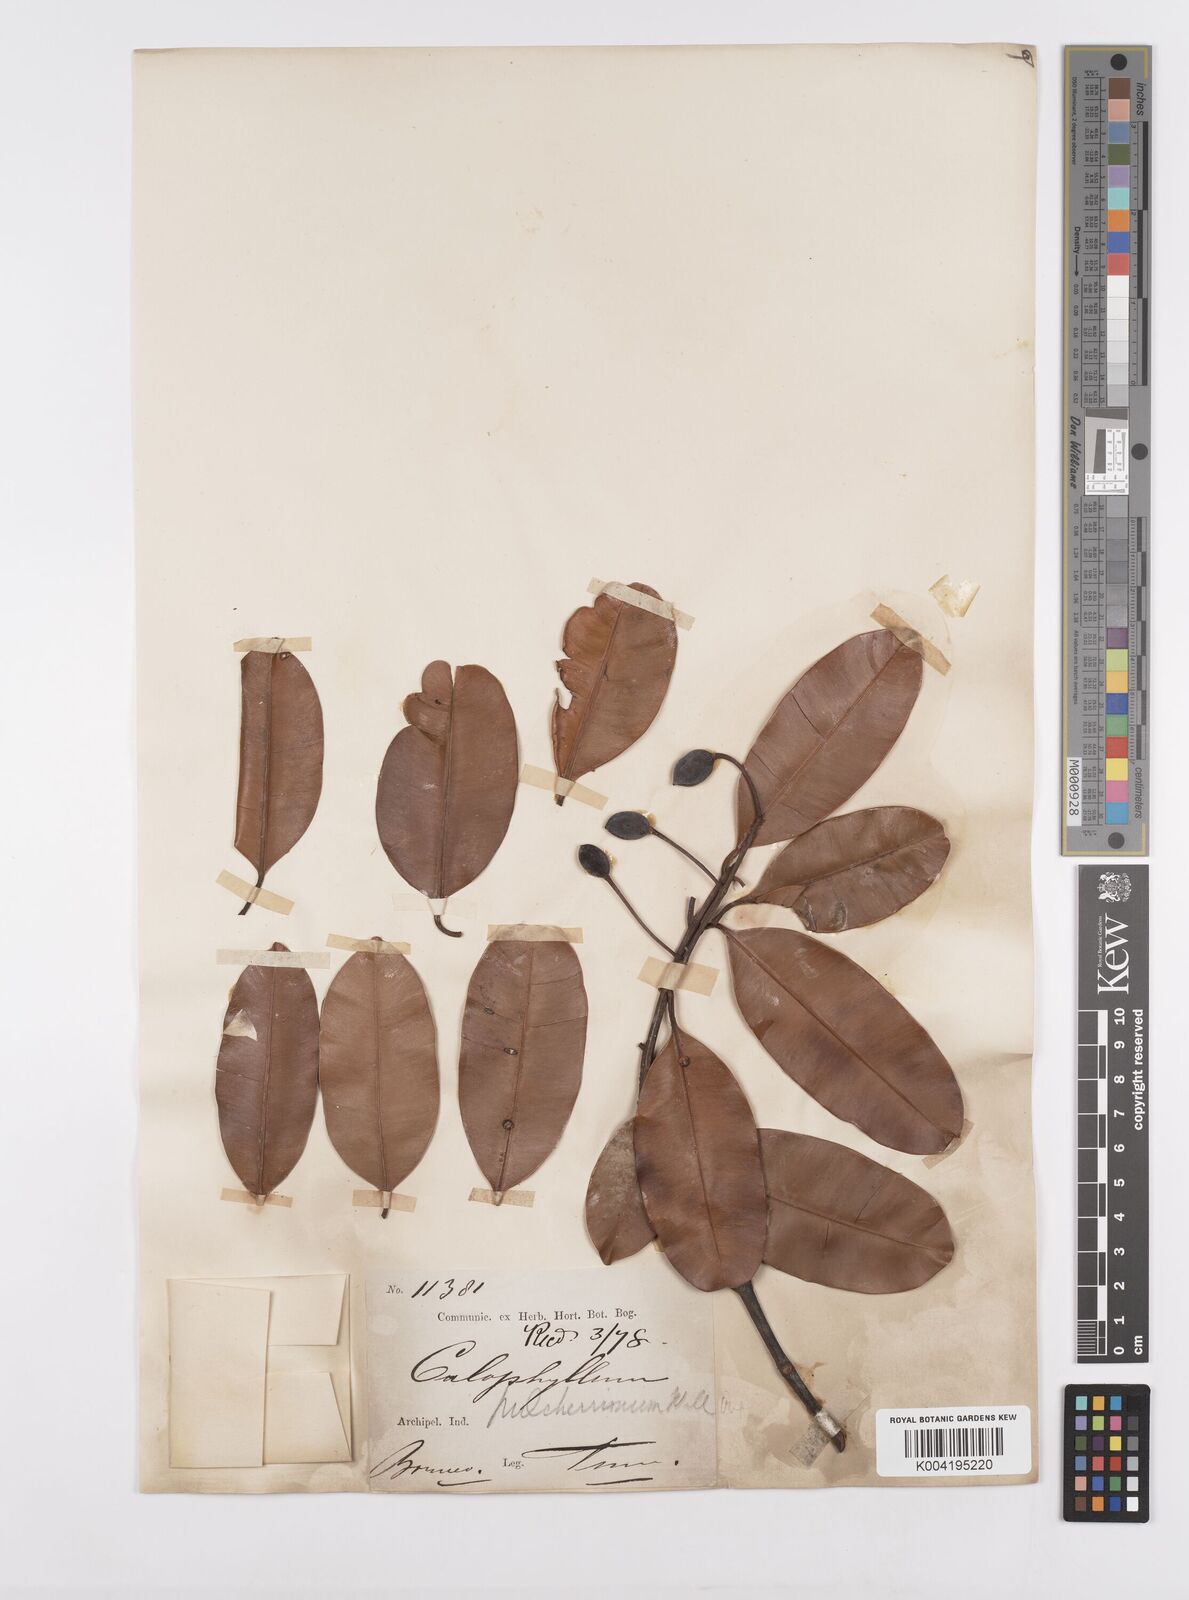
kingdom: Plantae
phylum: Tracheophyta
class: Magnoliopsida
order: Malpighiales
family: Calophyllaceae
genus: Calophyllum
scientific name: Calophyllum hosei
